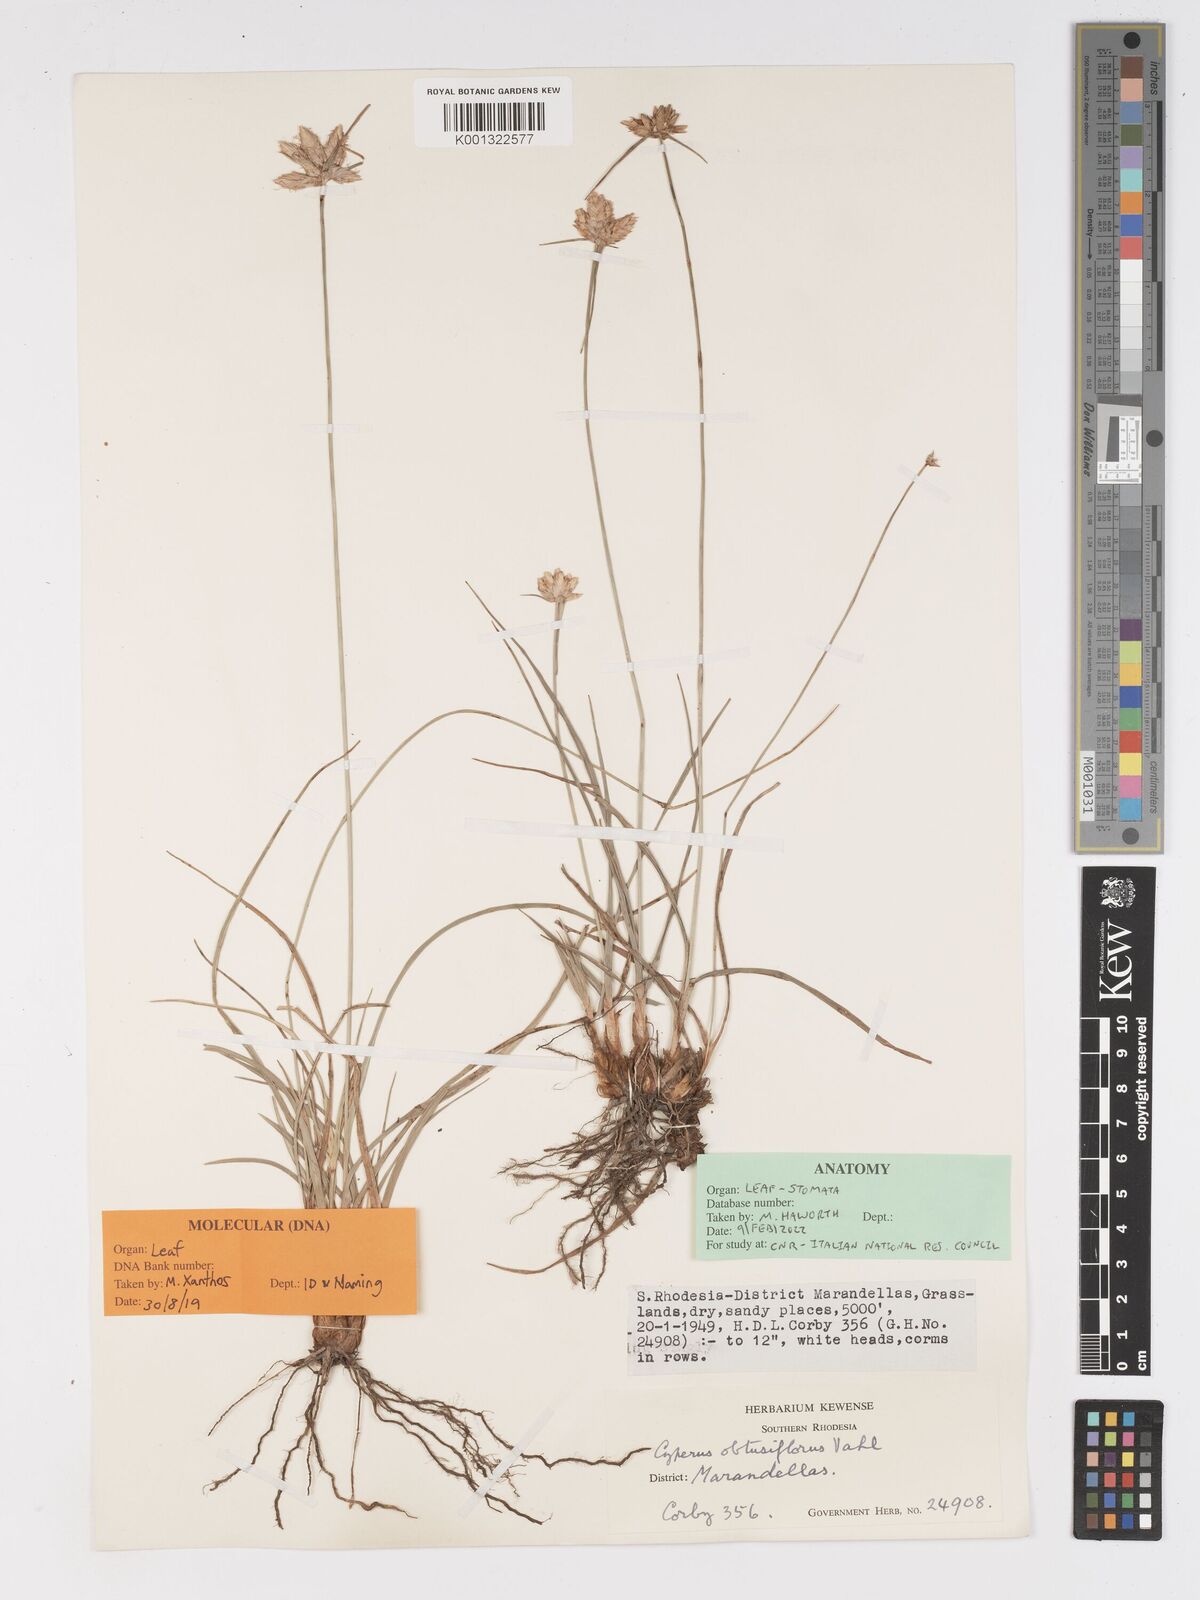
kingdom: Plantae
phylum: Tracheophyta
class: Liliopsida
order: Poales
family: Cyperaceae
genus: Cyperus
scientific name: Cyperus niveus
